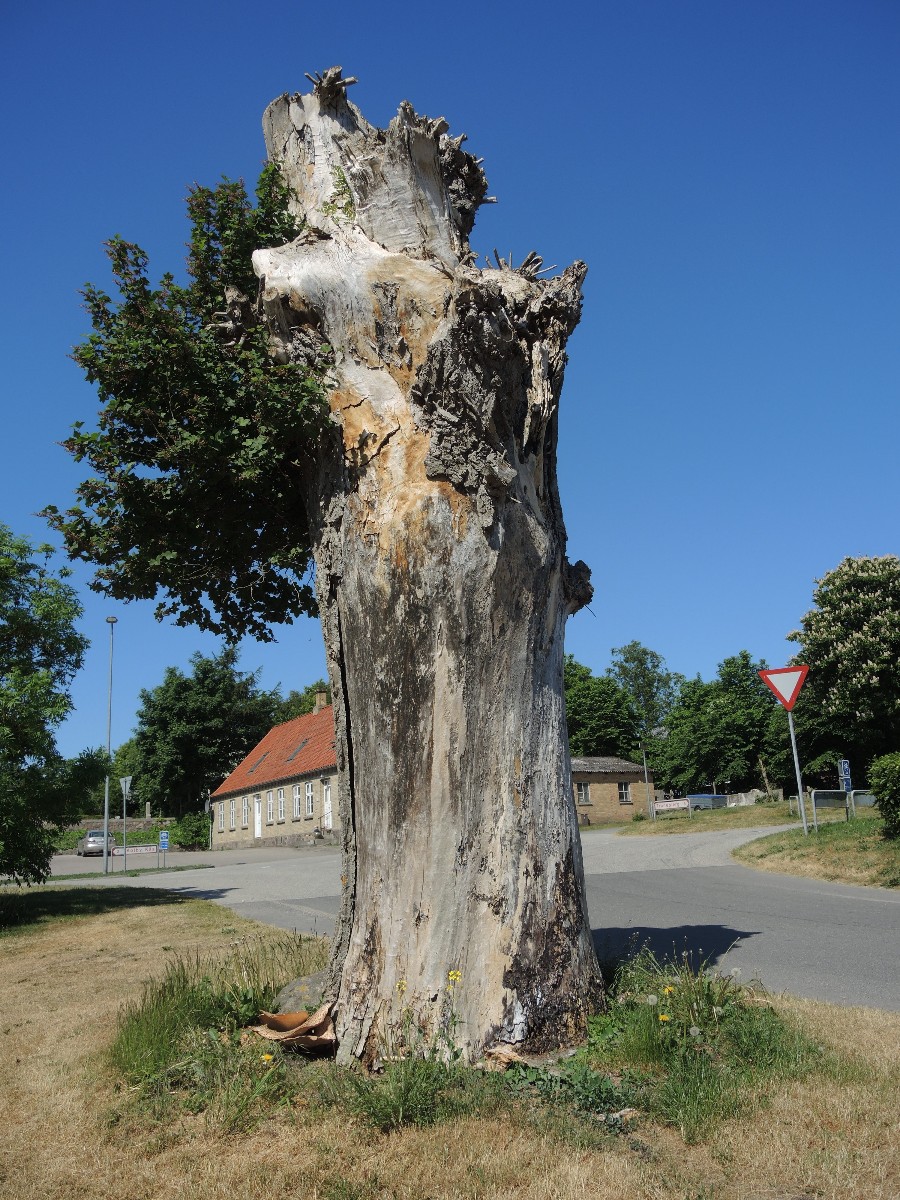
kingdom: Fungi
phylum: Basidiomycota
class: Agaricomycetes
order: Polyporales
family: Polyporaceae
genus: Cerioporus
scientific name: Cerioporus squamosus
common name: skællet stilkporesvamp
